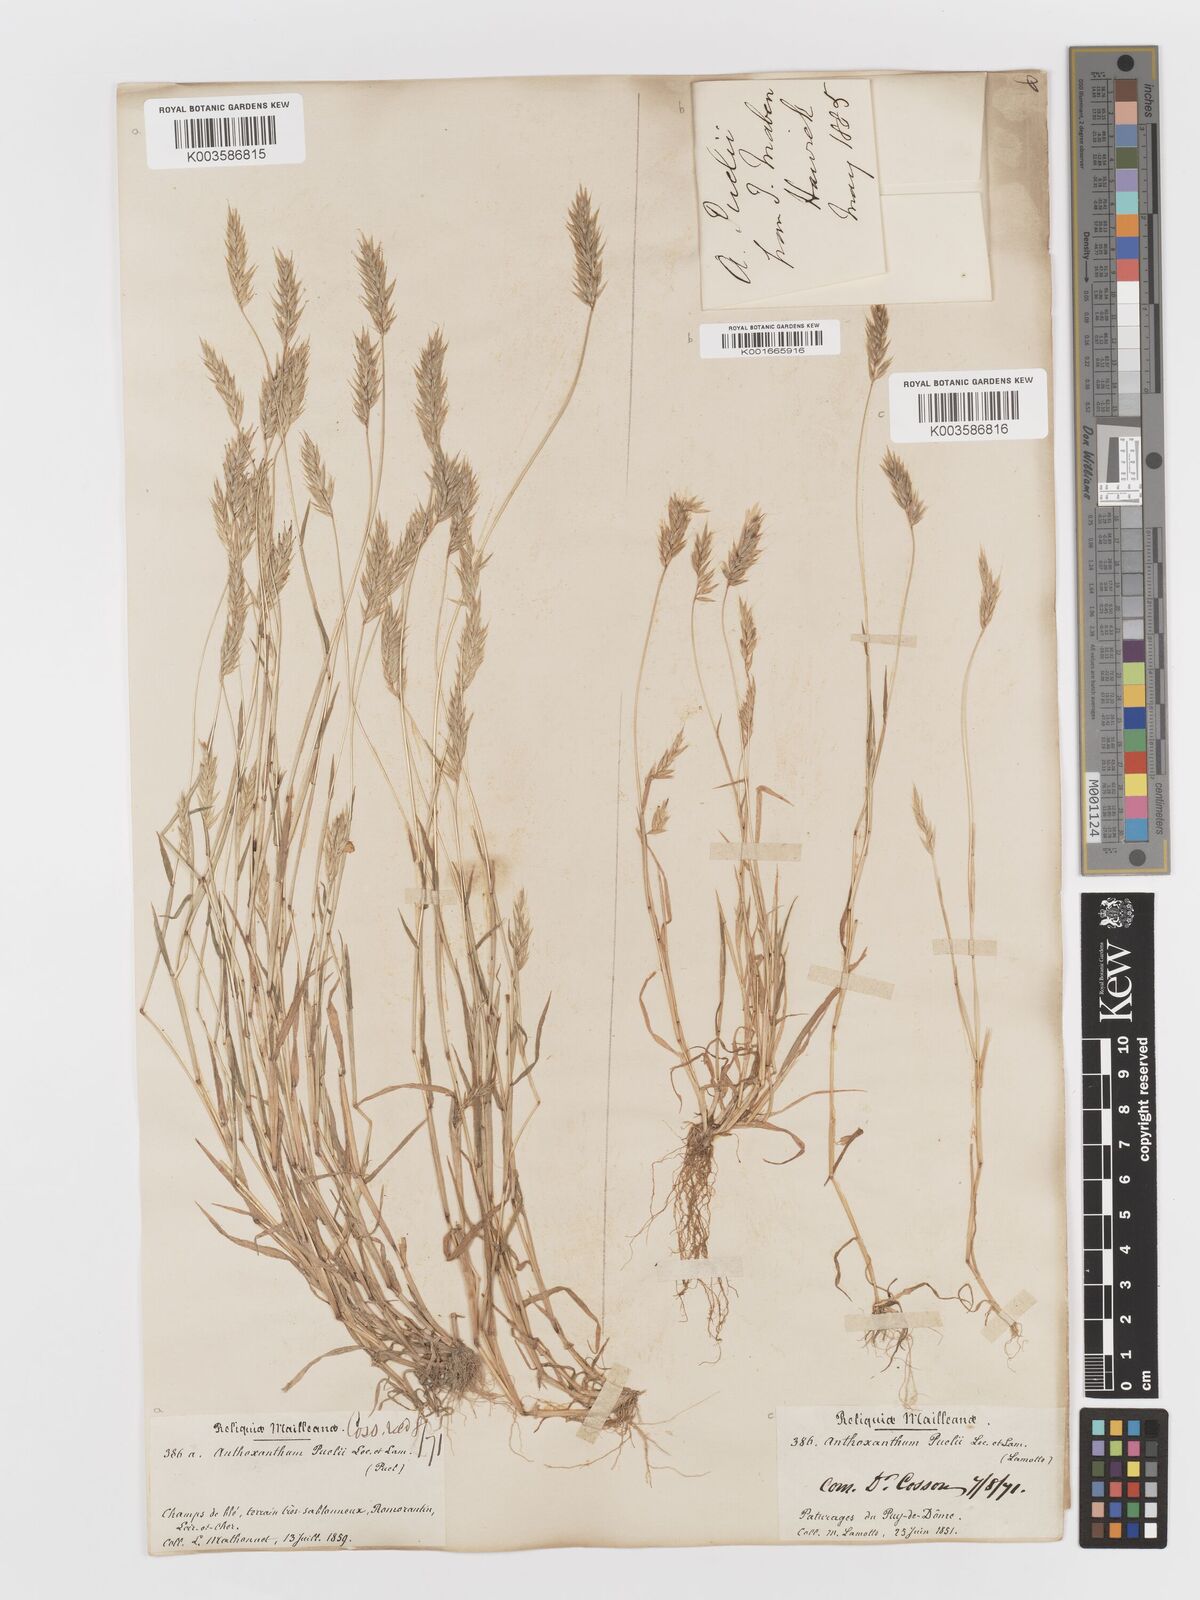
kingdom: Plantae
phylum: Tracheophyta
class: Liliopsida
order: Poales
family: Poaceae
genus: Anthoxanthum
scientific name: Anthoxanthum
